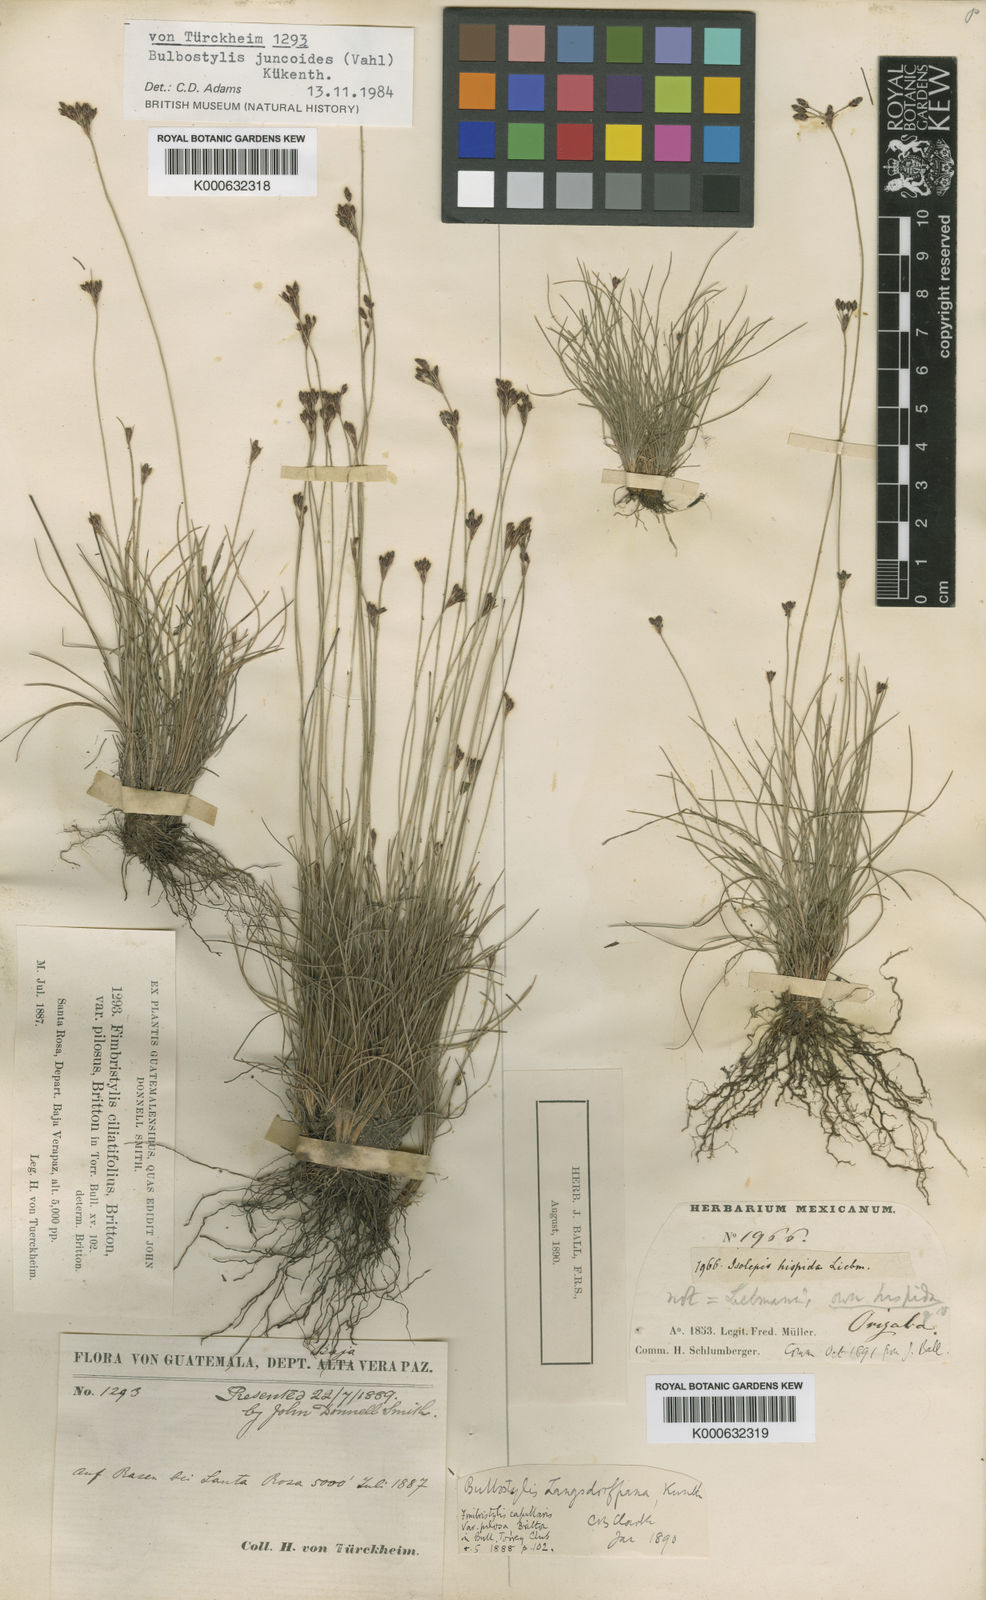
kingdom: Plantae
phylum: Tracheophyta
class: Liliopsida
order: Poales
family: Cyperaceae
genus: Bulbostylis
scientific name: Bulbostylis
